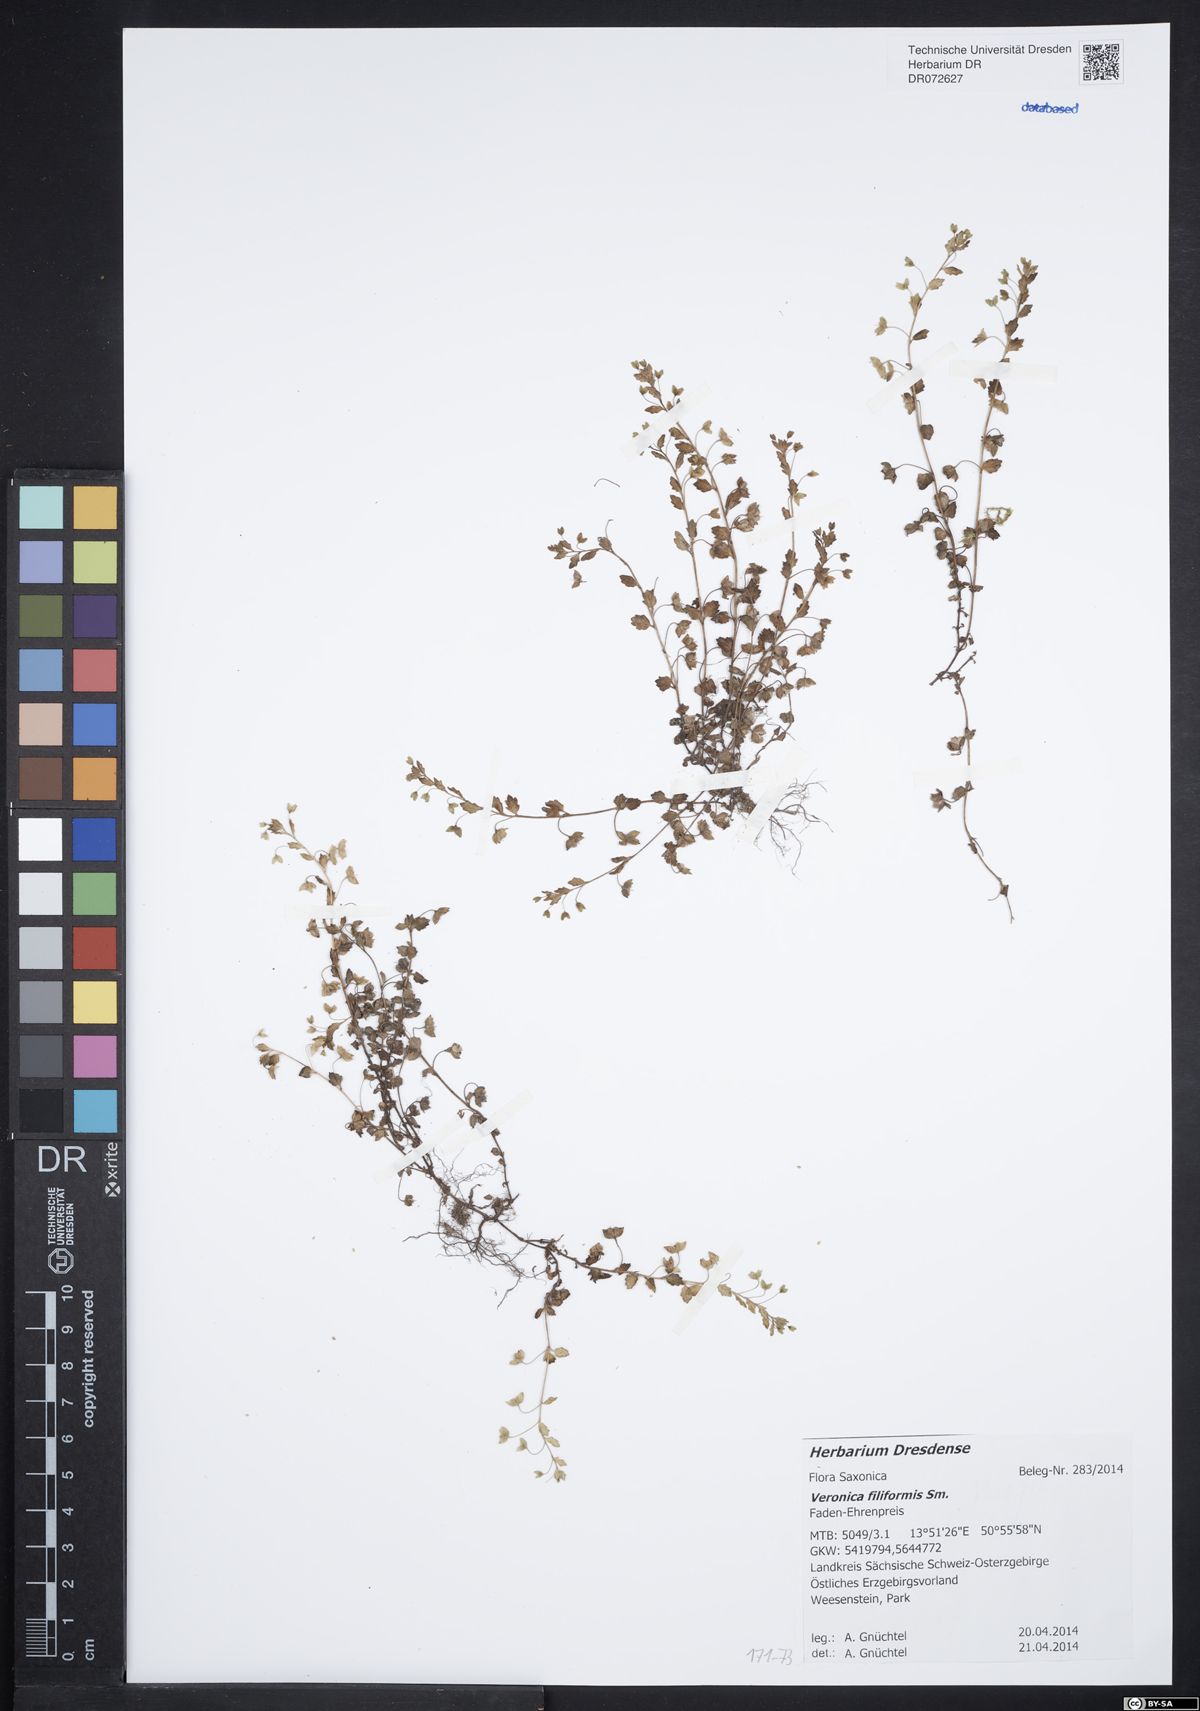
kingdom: Plantae
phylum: Tracheophyta
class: Magnoliopsida
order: Lamiales
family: Plantaginaceae
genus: Veronica
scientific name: Veronica filiformis
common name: Slender speedwell
